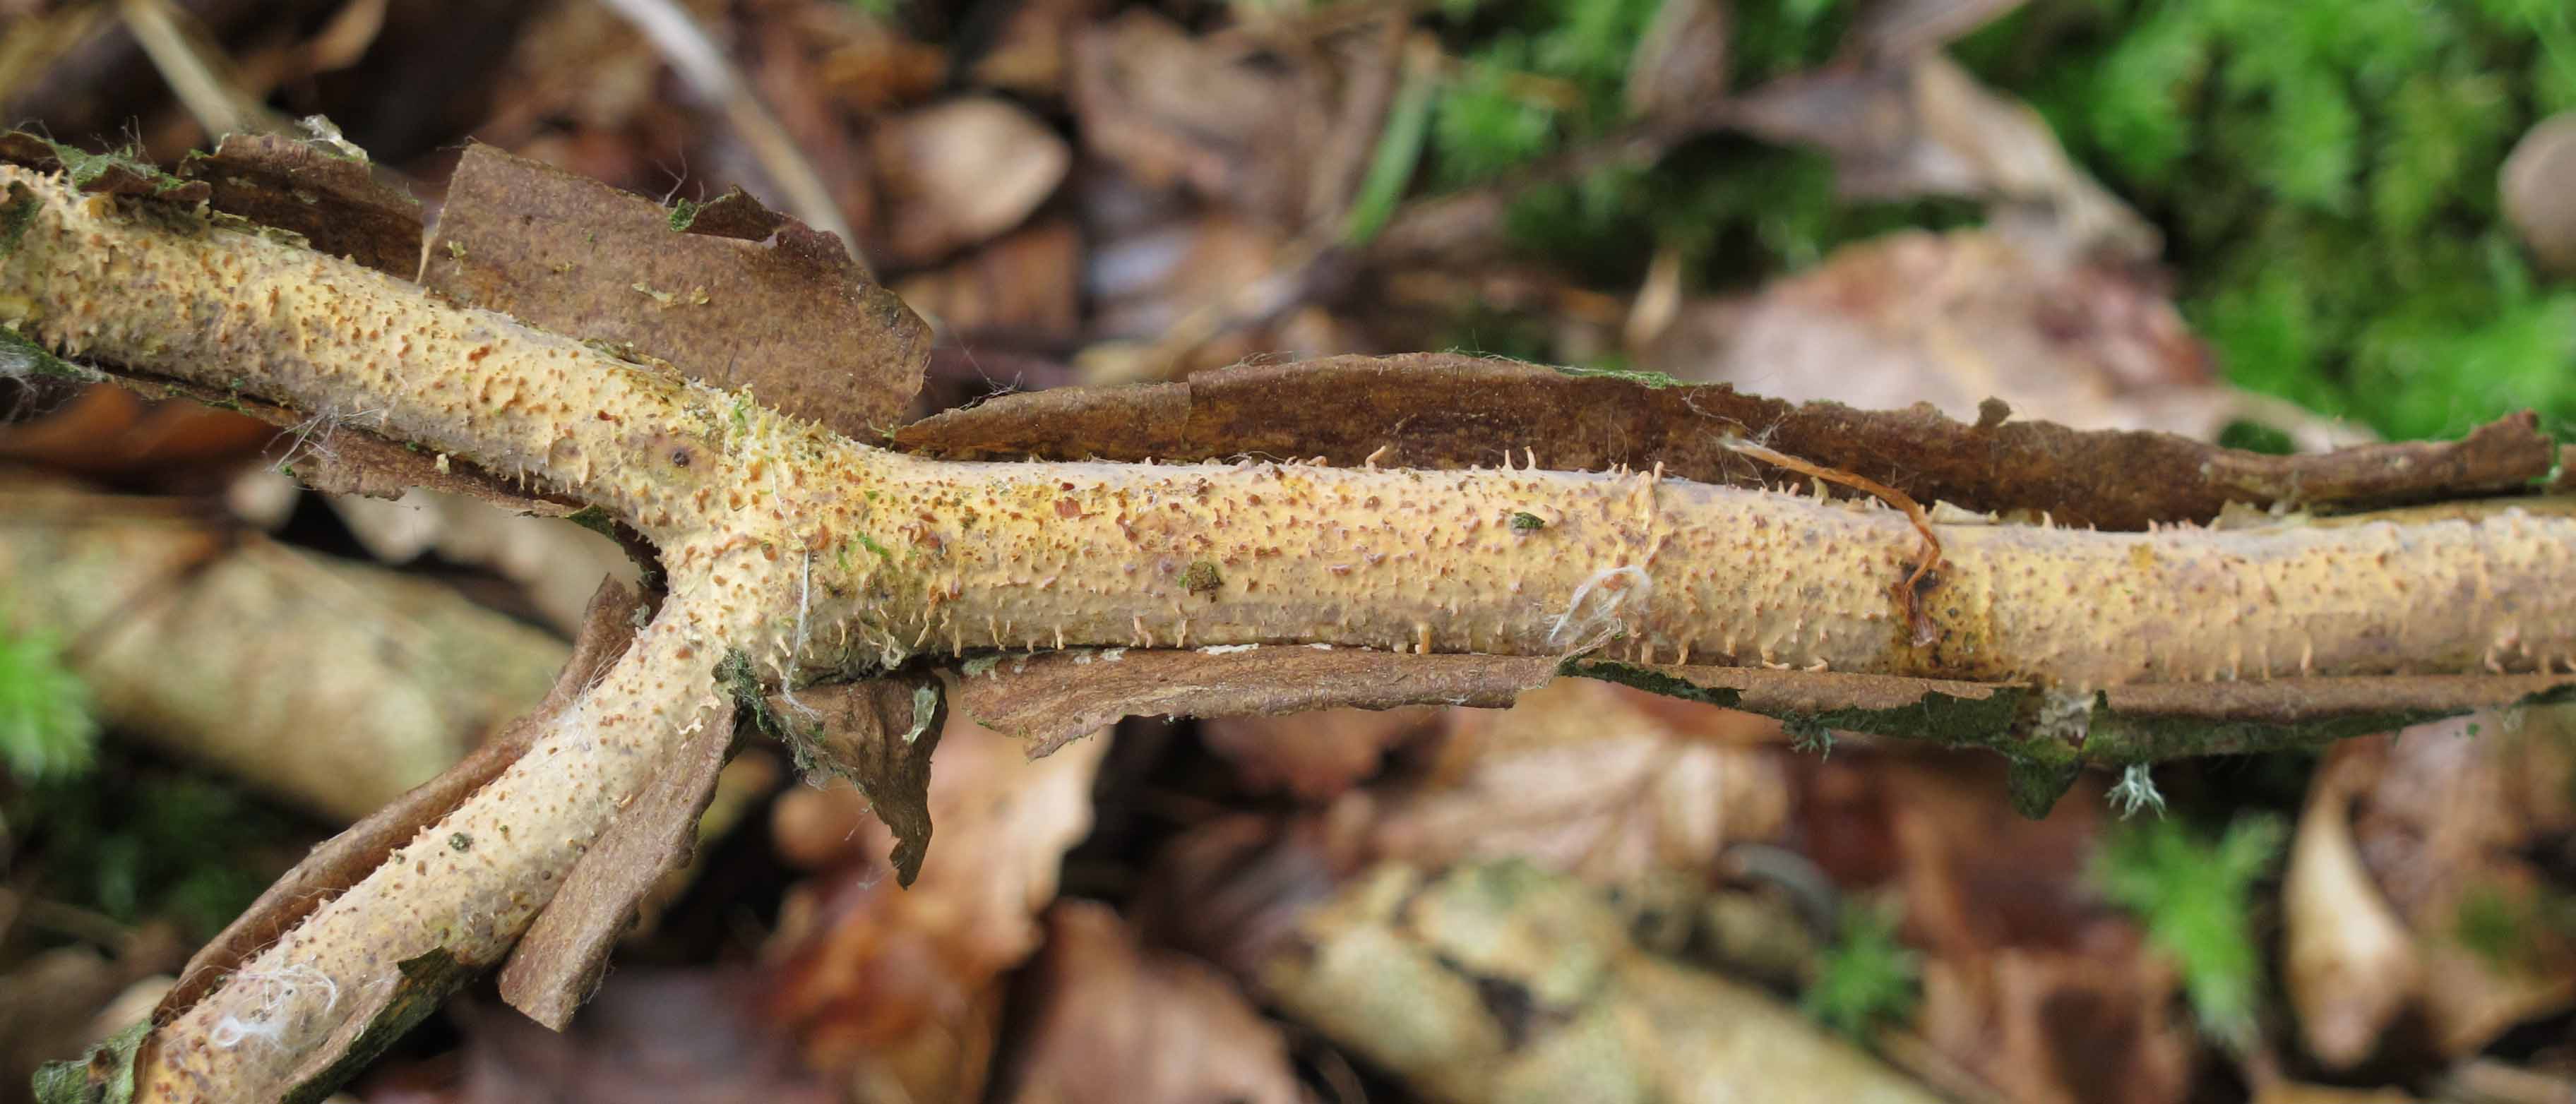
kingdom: Fungi
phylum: Basidiomycota
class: Agaricomycetes
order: Russulales
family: Peniophoraceae
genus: Peniophora
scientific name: Peniophora laeta
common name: tandet voksskind
